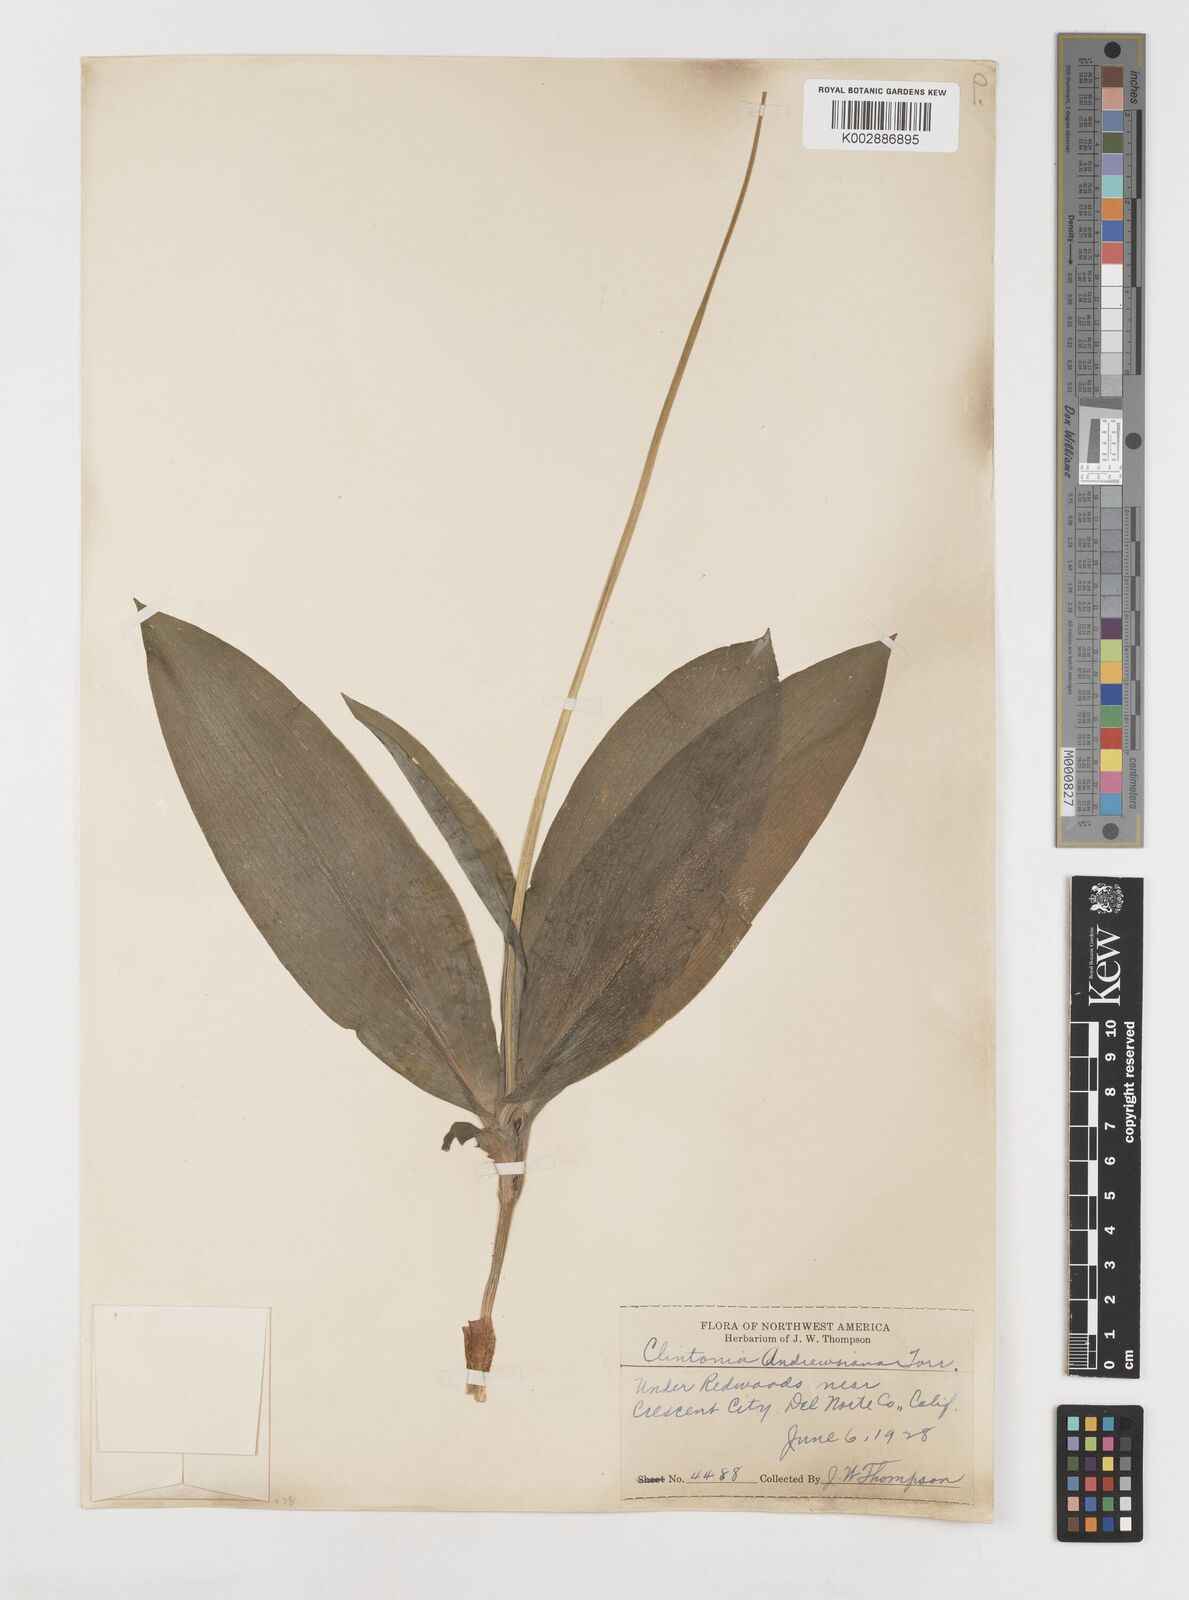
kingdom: Plantae
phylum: Tracheophyta
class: Liliopsida
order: Liliales
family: Liliaceae
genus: Clintonia
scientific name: Clintonia andrewsiana
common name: Red clintonia
